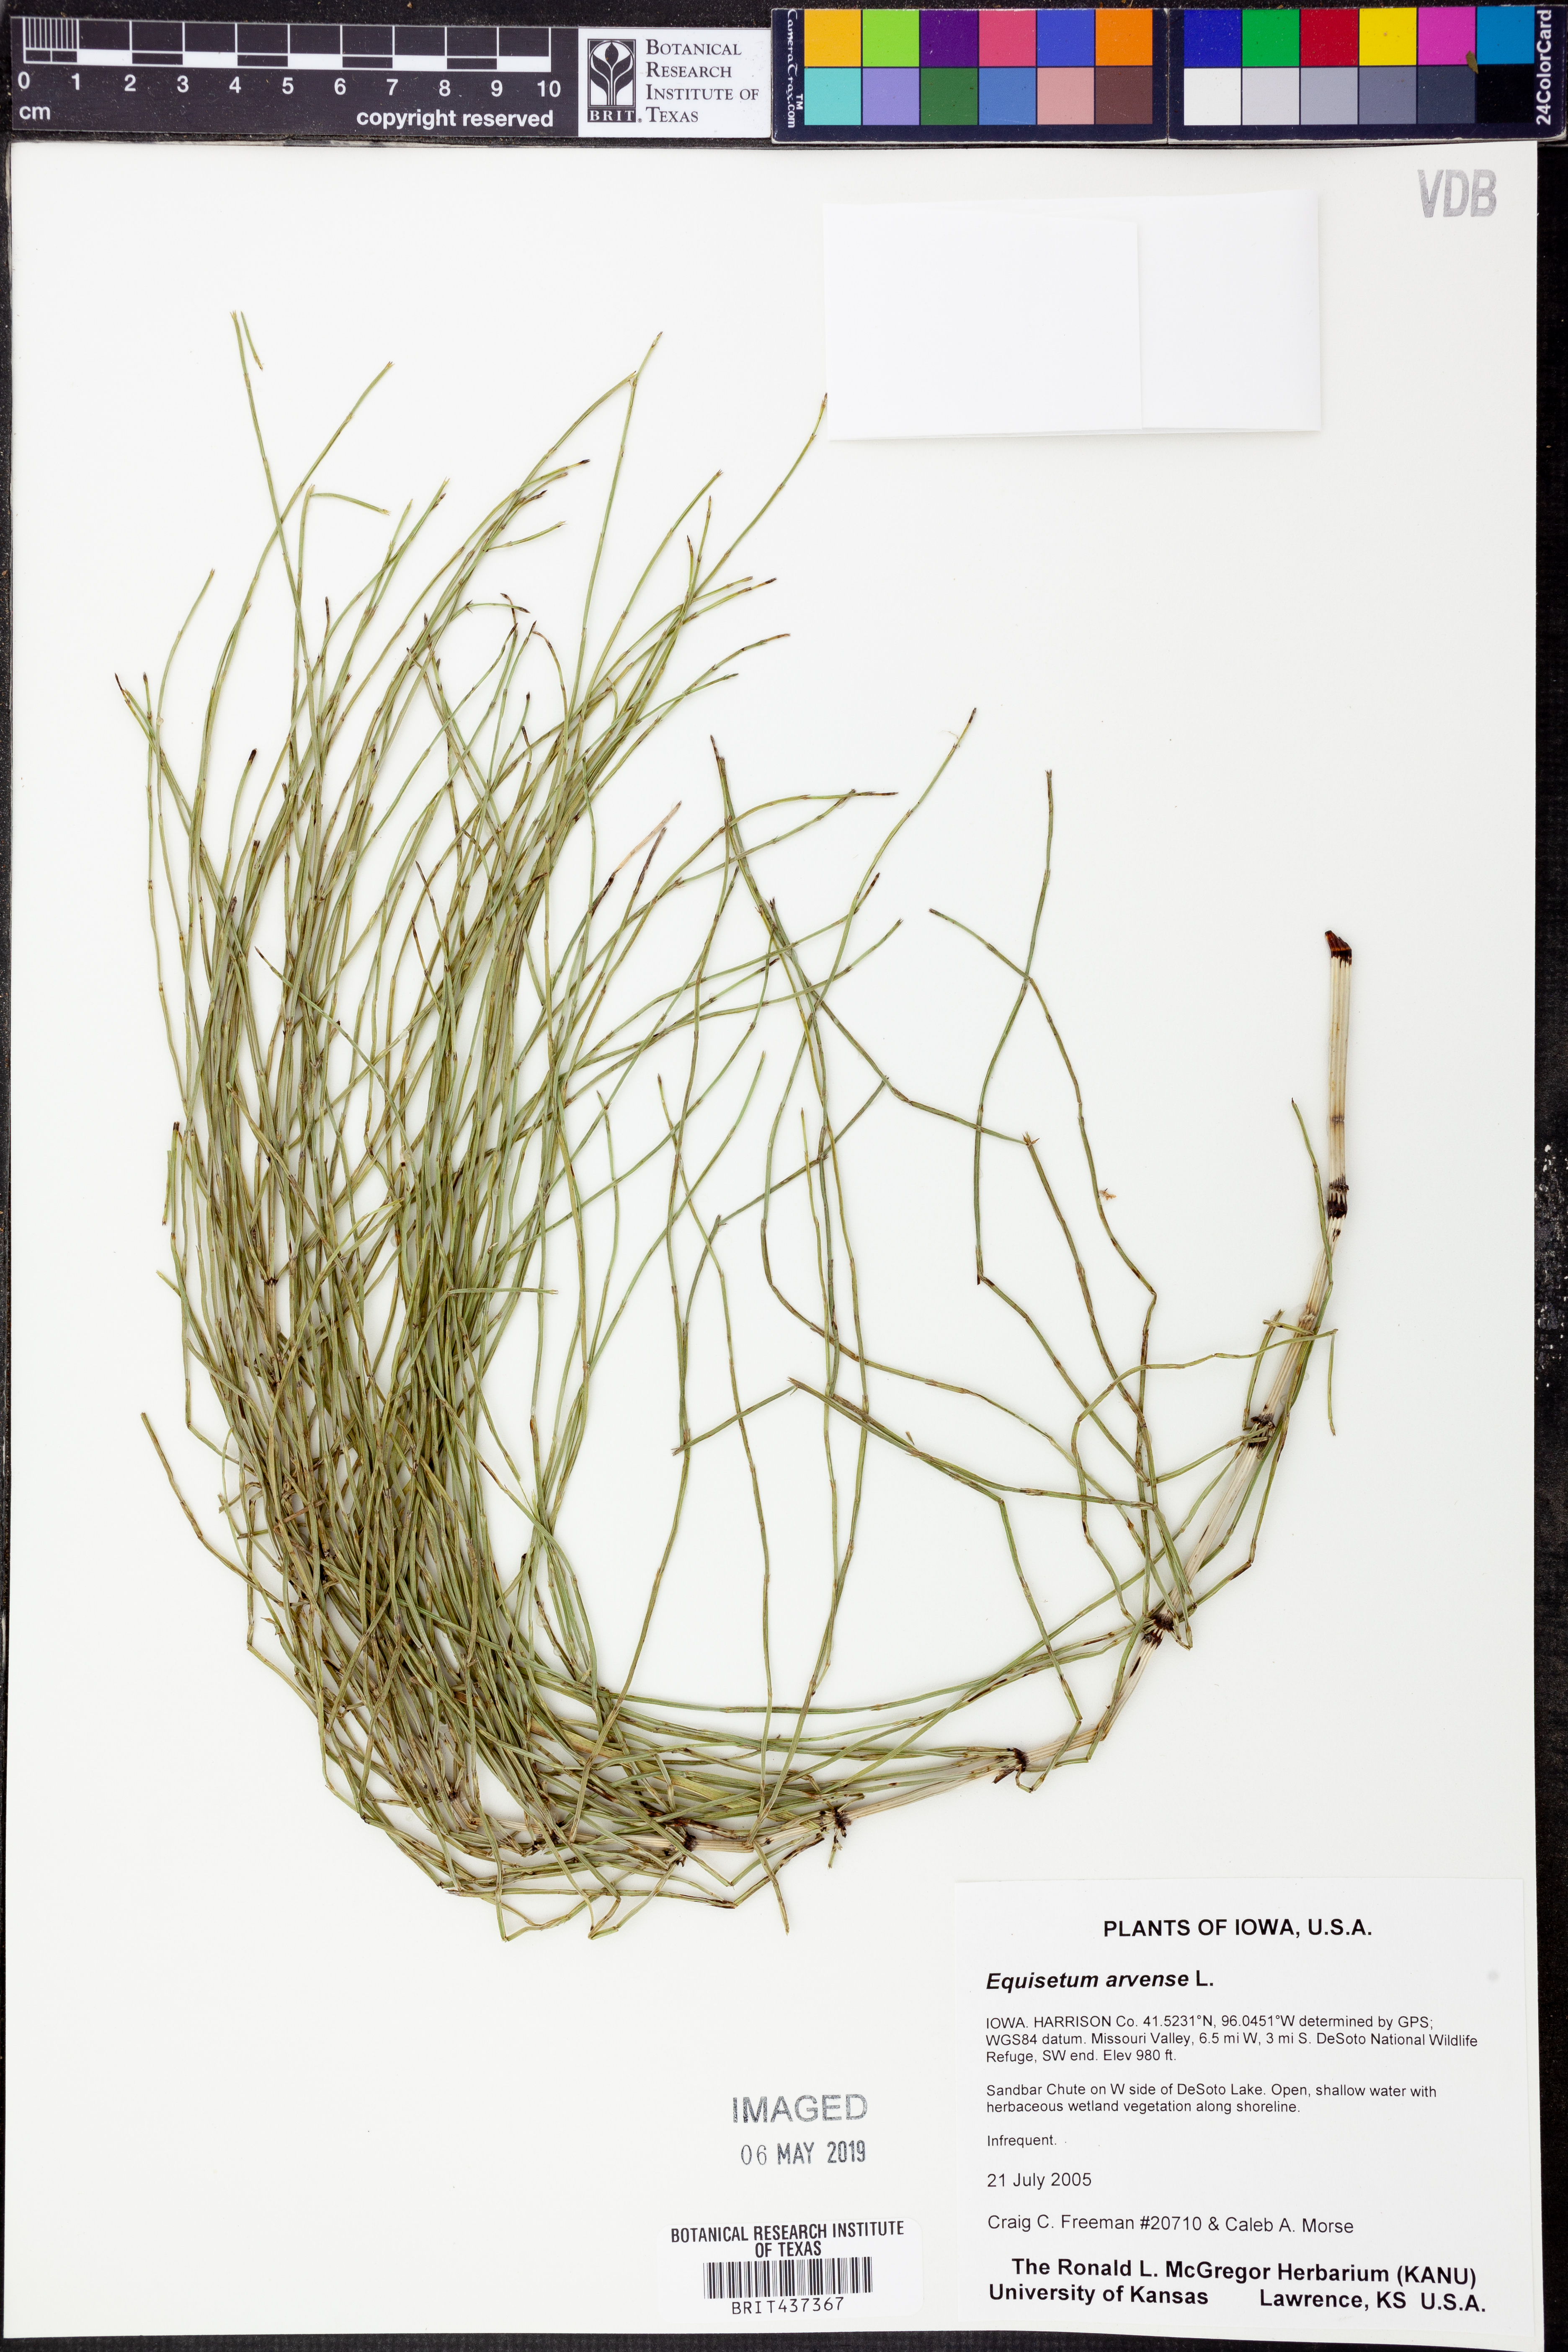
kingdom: Plantae
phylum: Tracheophyta
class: Polypodiopsida
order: Equisetales
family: Equisetaceae
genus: Equisetum
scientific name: Equisetum arvense
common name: Field horsetail
